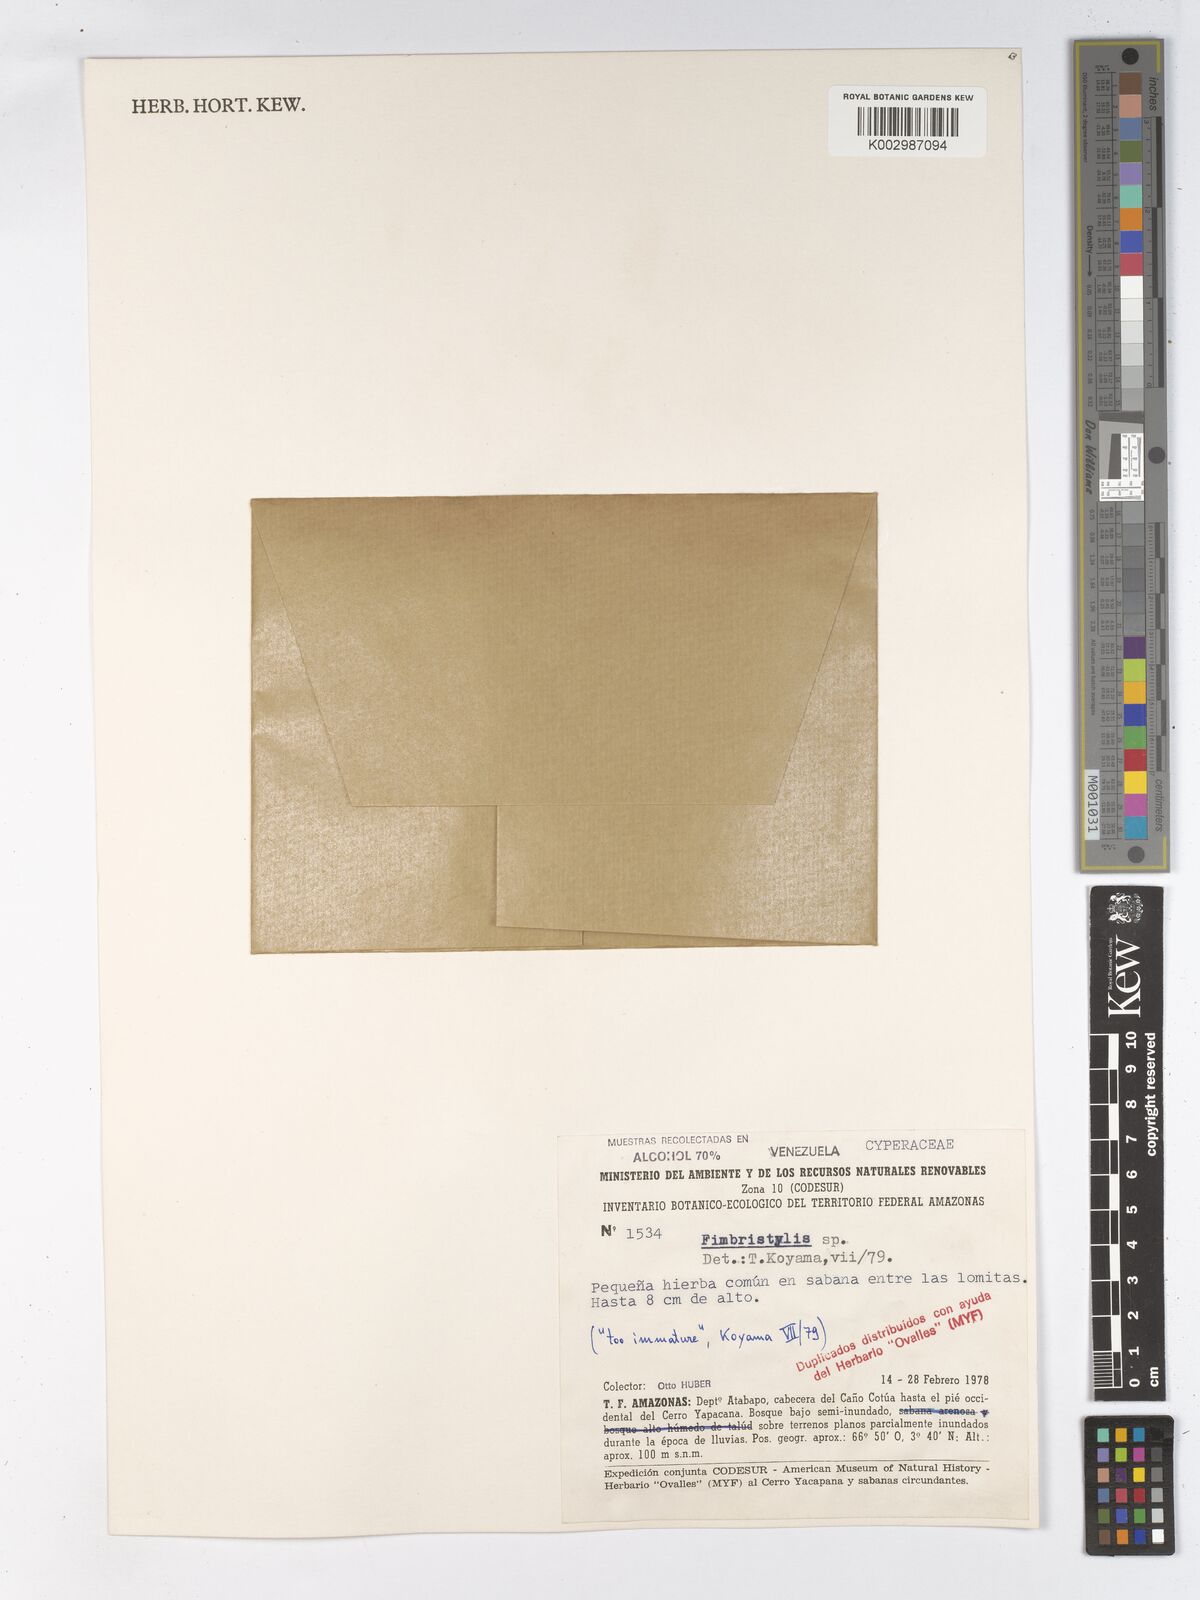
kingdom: Plantae
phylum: Tracheophyta
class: Liliopsida
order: Poales
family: Cyperaceae
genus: Fimbristylis
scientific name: Fimbristylis
